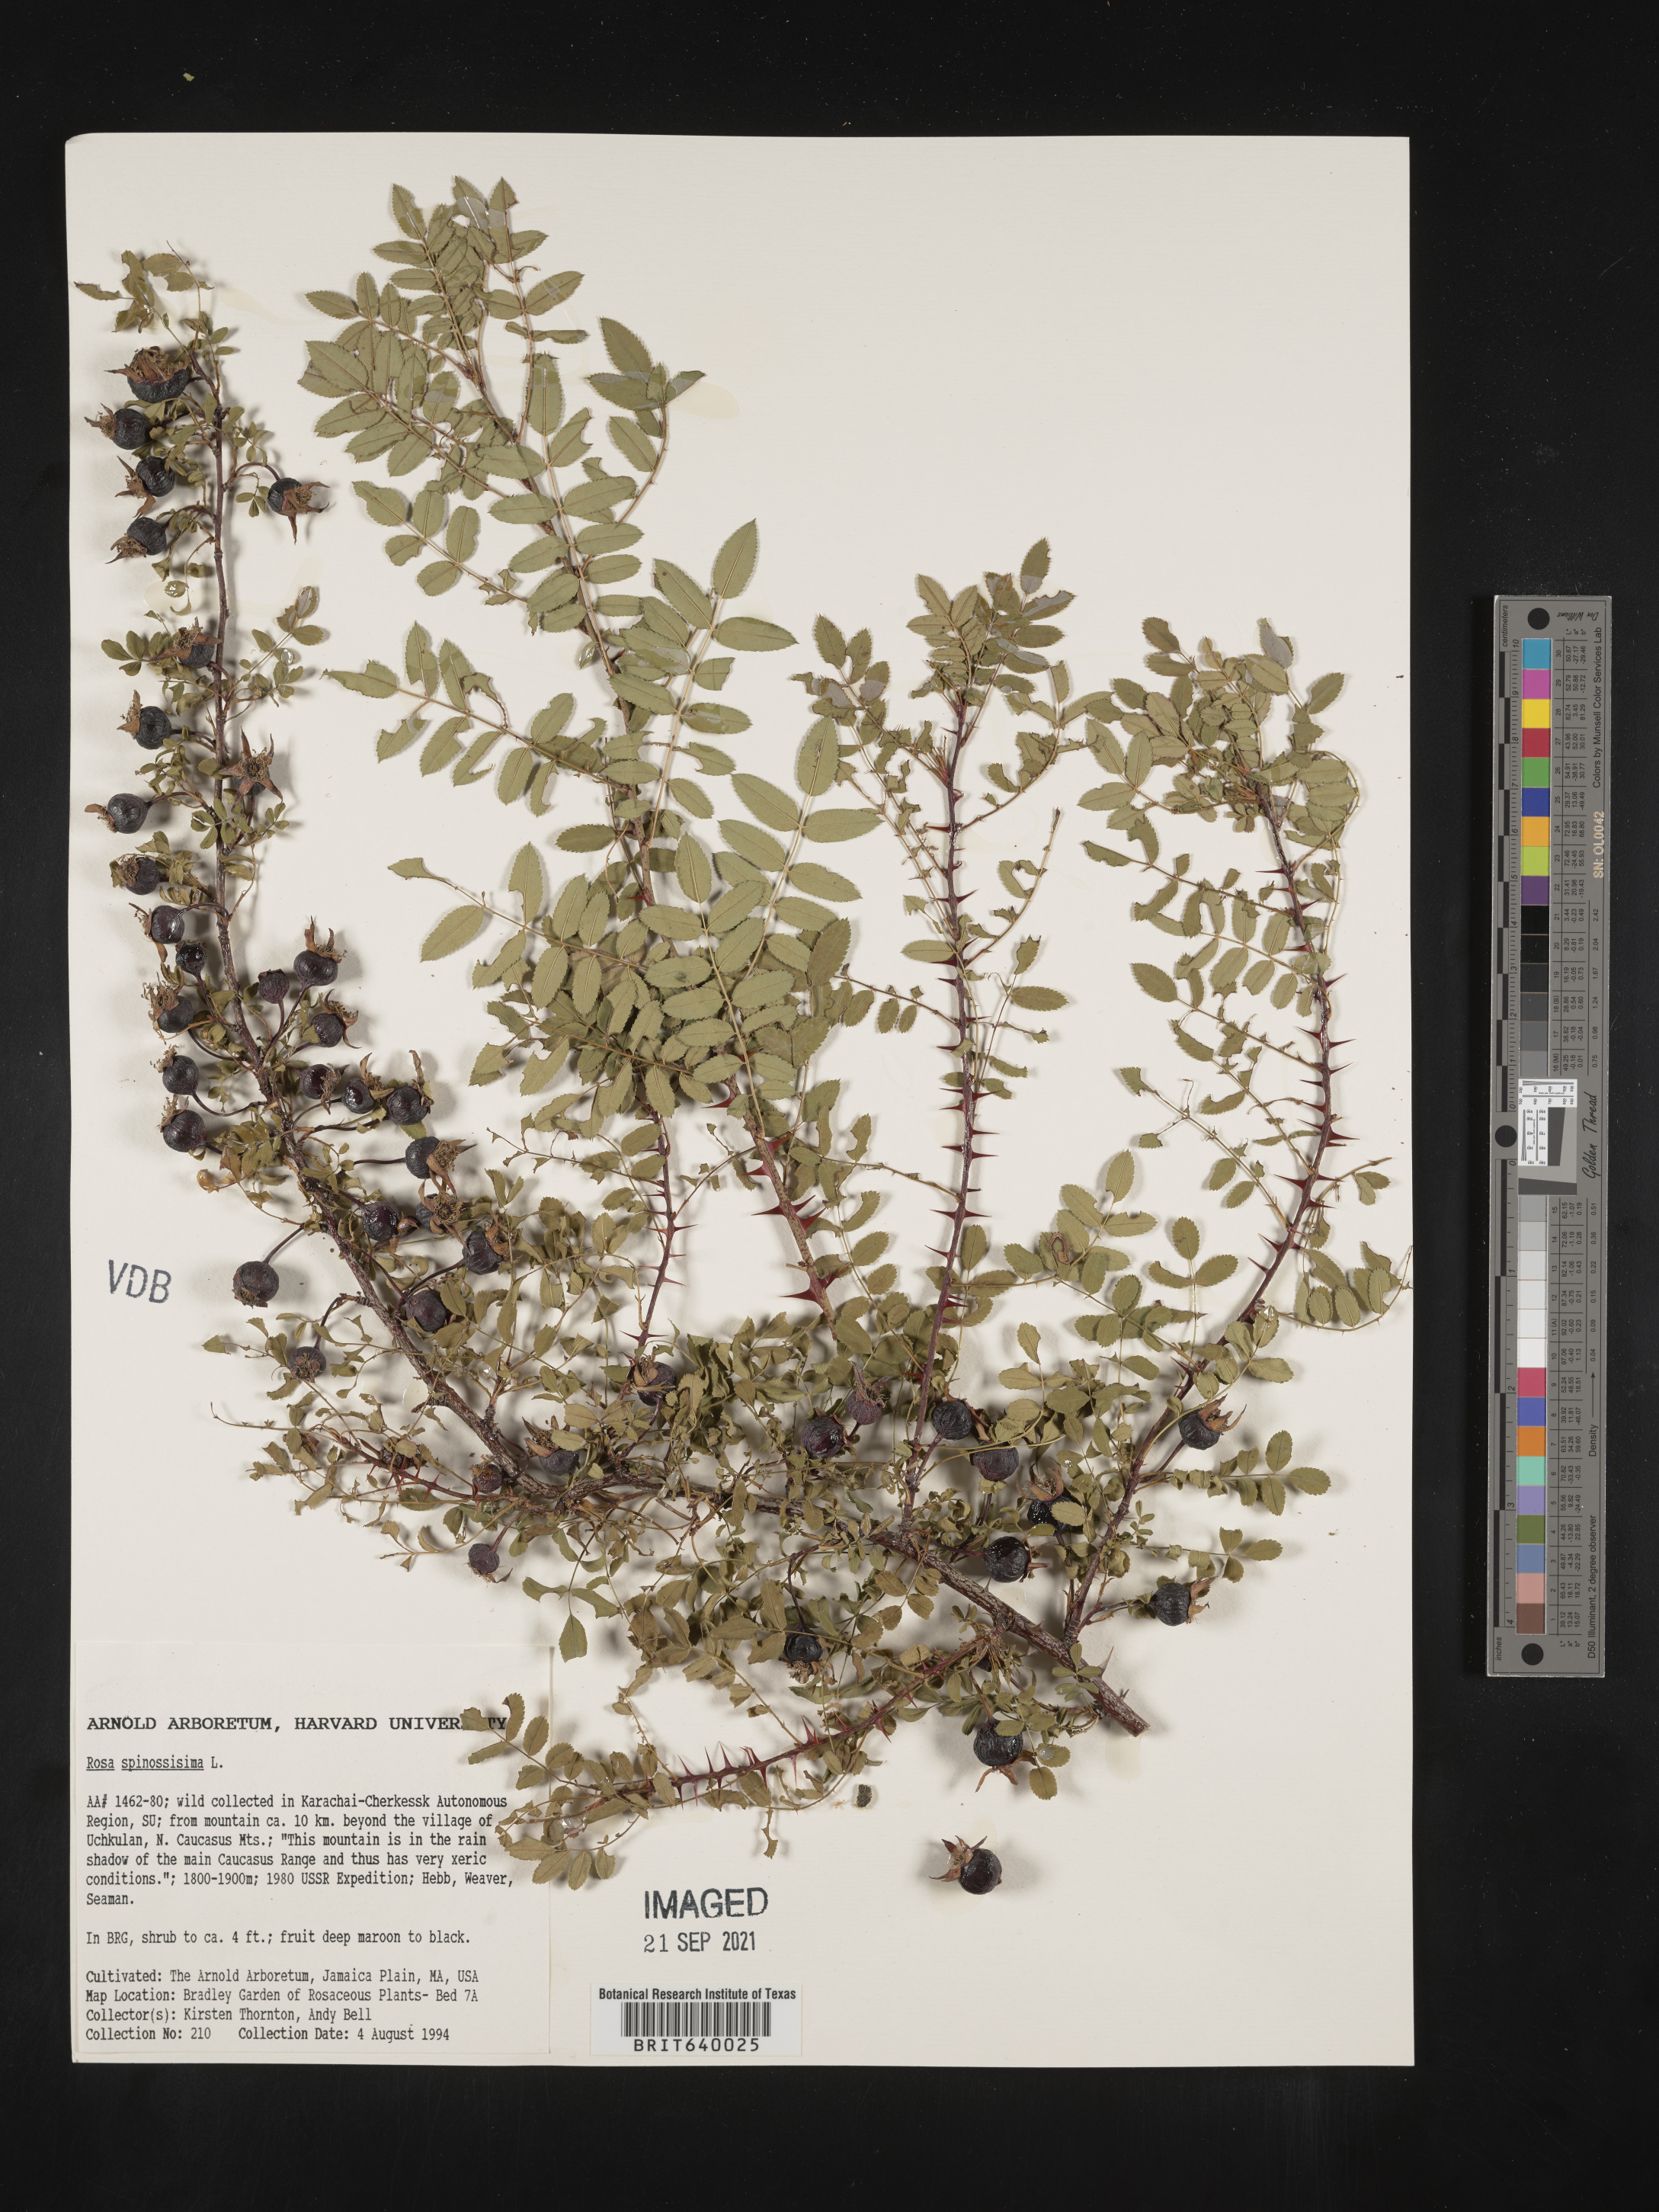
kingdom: Plantae
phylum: Tracheophyta
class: Magnoliopsida
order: Rosales
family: Rosaceae
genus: Rosa
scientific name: Rosa
